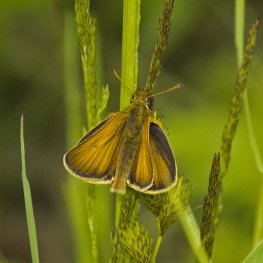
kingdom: Animalia
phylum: Arthropoda
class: Insecta
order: Lepidoptera
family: Hesperiidae
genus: Thymelicus
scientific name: Thymelicus lineola
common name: European Skipper
